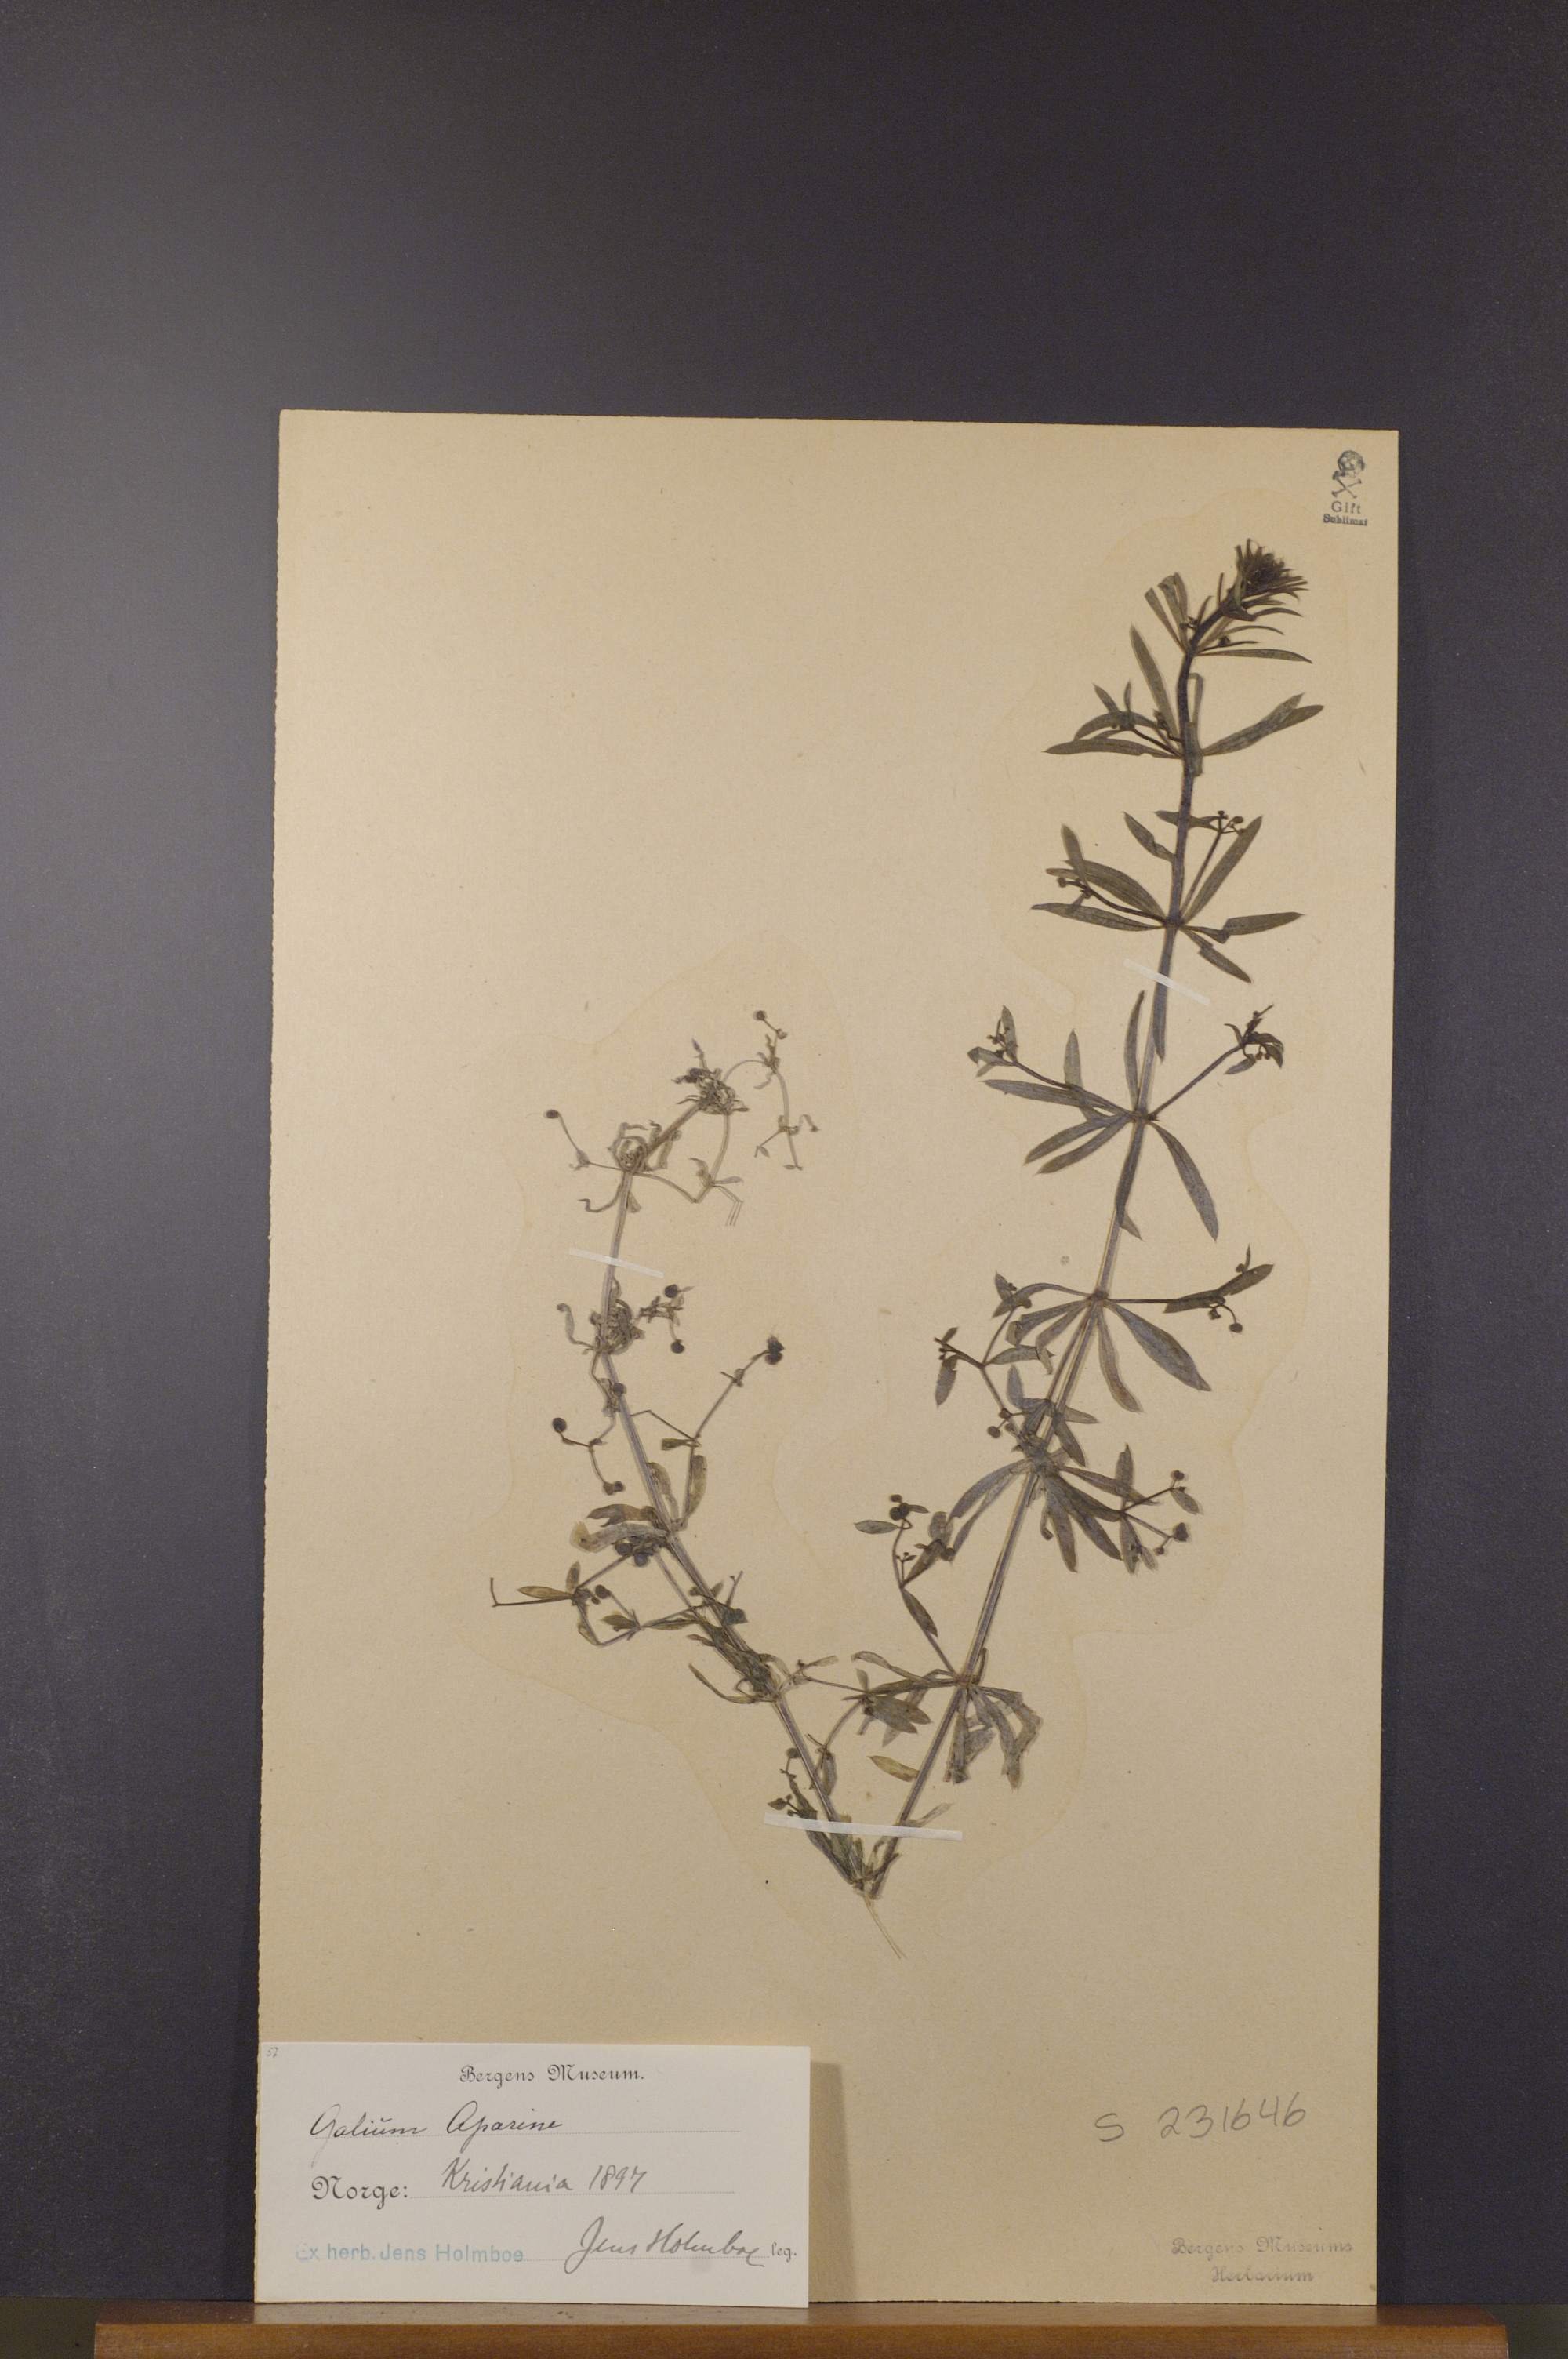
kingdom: Plantae
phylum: Tracheophyta
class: Magnoliopsida
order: Gentianales
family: Rubiaceae
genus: Galium
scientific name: Galium aparine
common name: Cleavers
